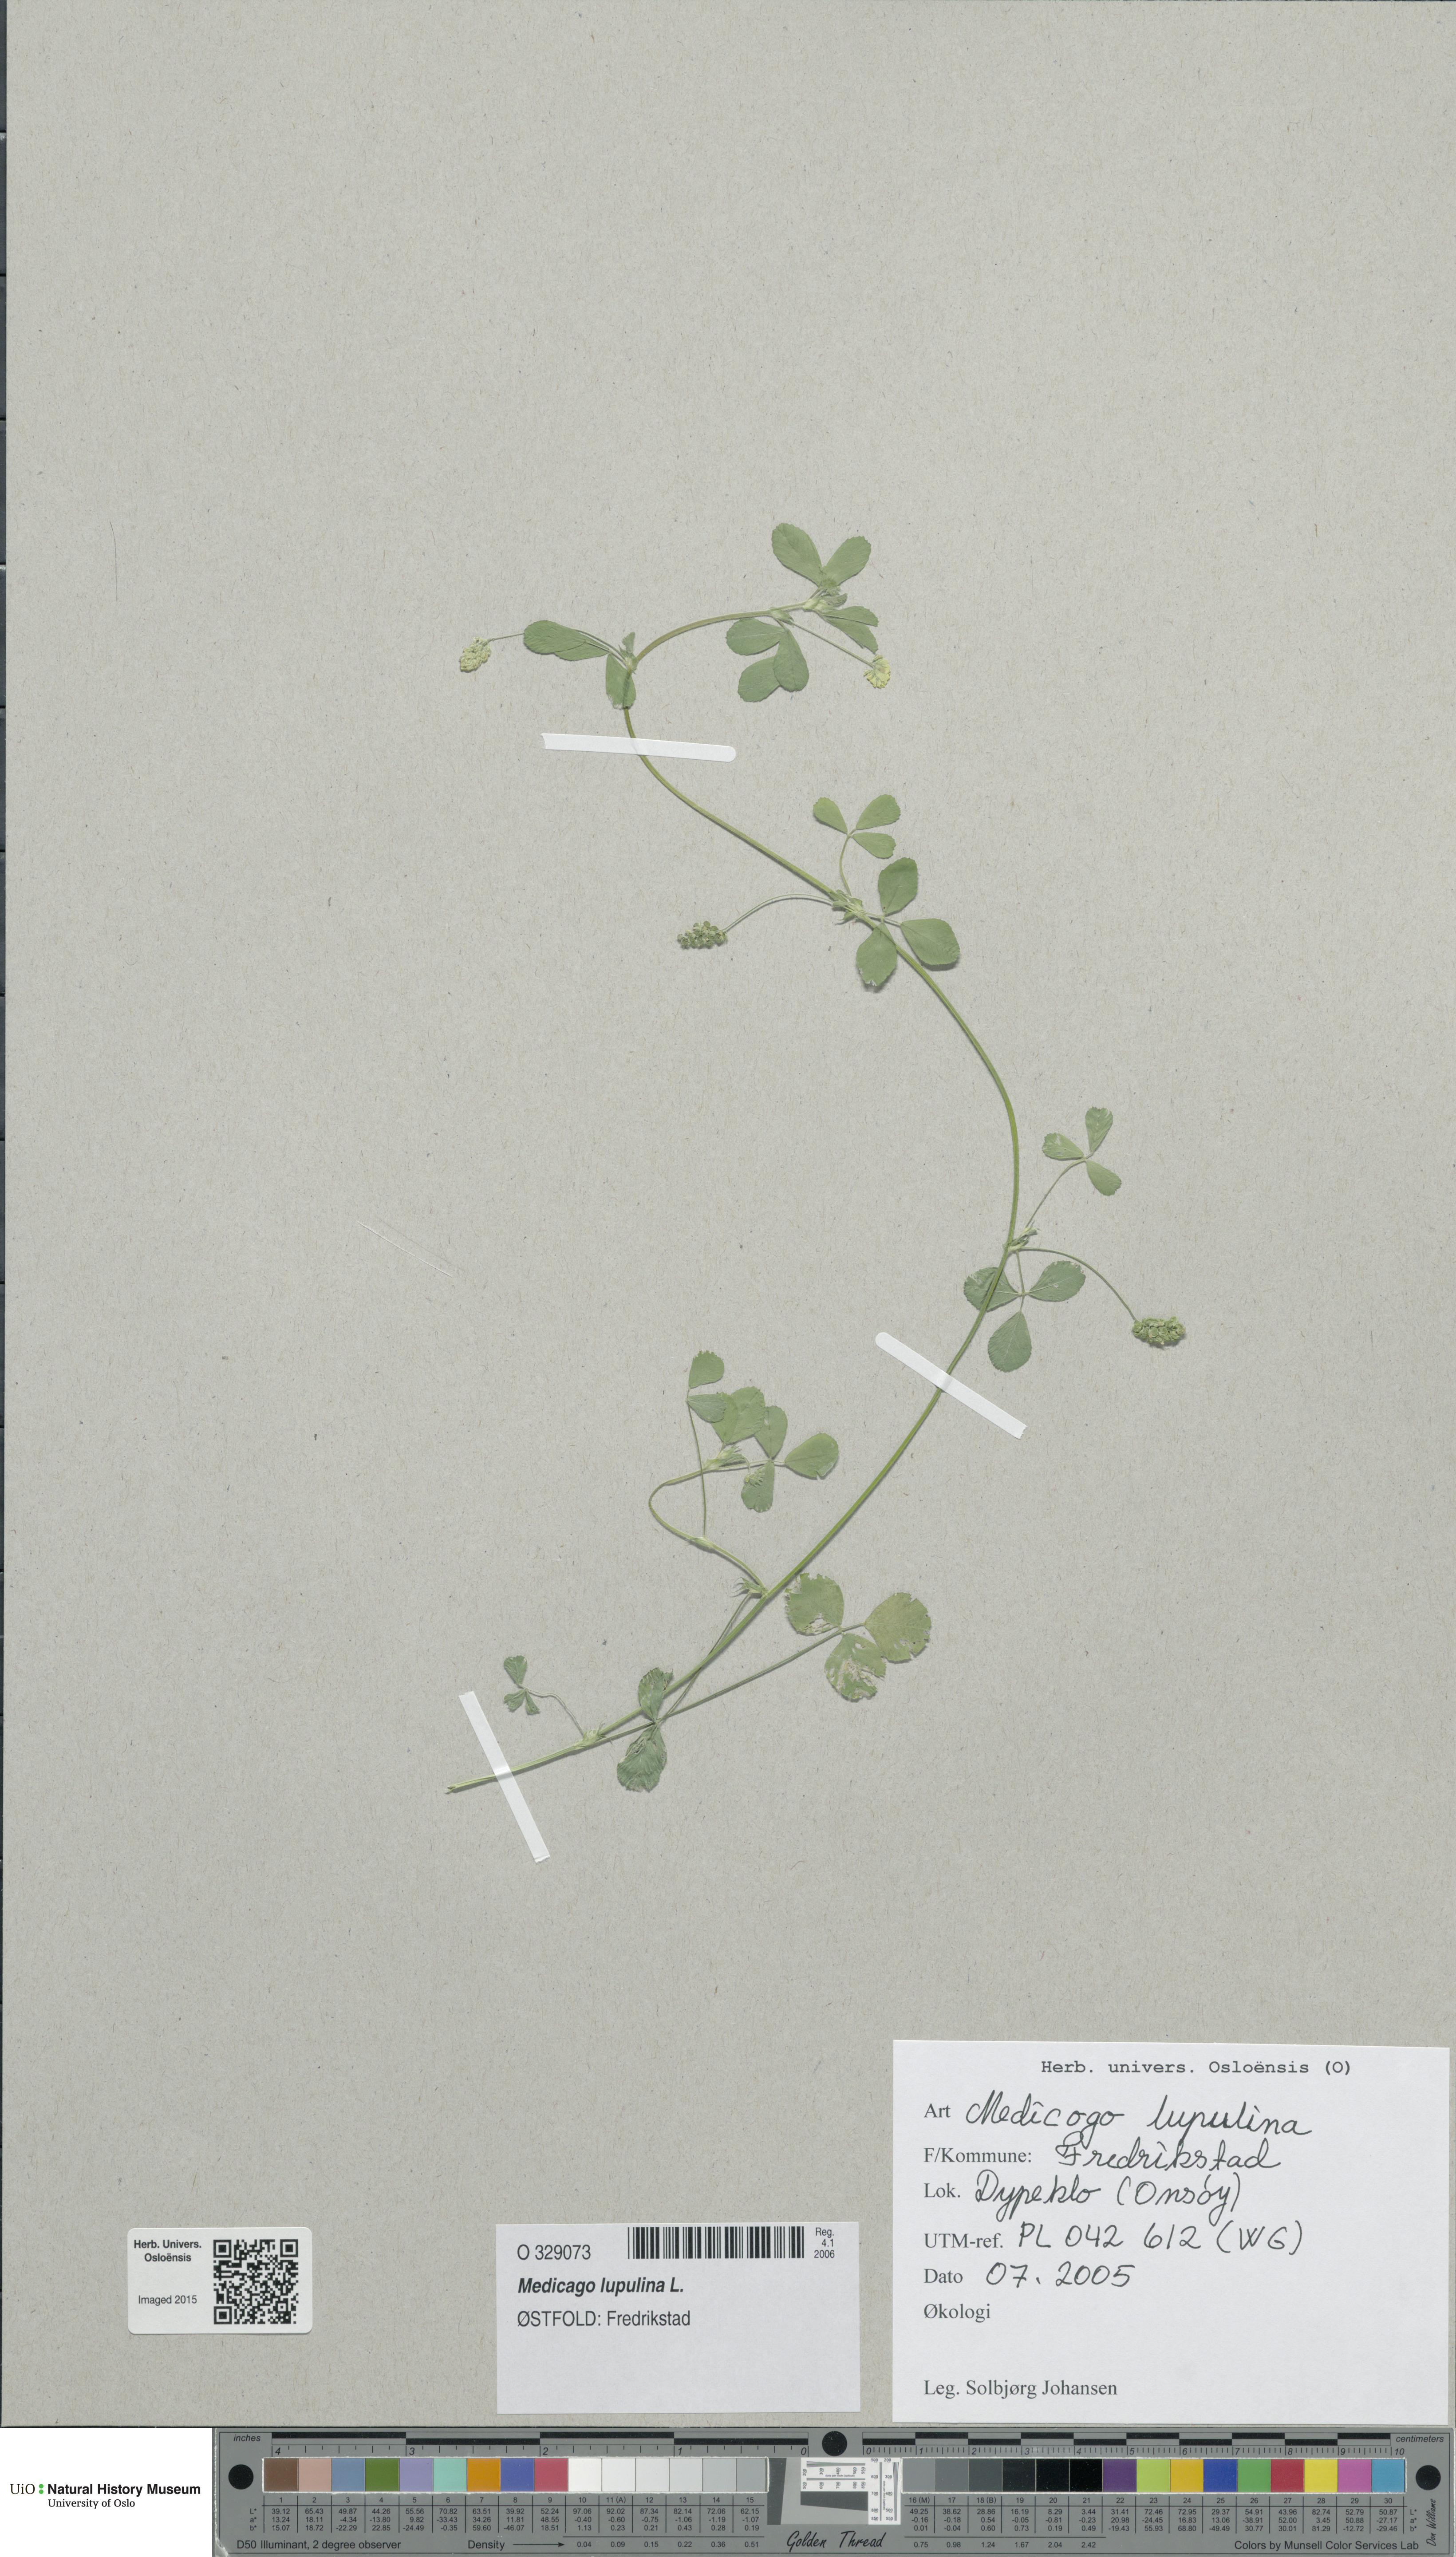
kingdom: Plantae
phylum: Tracheophyta
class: Magnoliopsida
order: Fabales
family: Fabaceae
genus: Medicago
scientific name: Medicago lupulina
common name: Black medick
